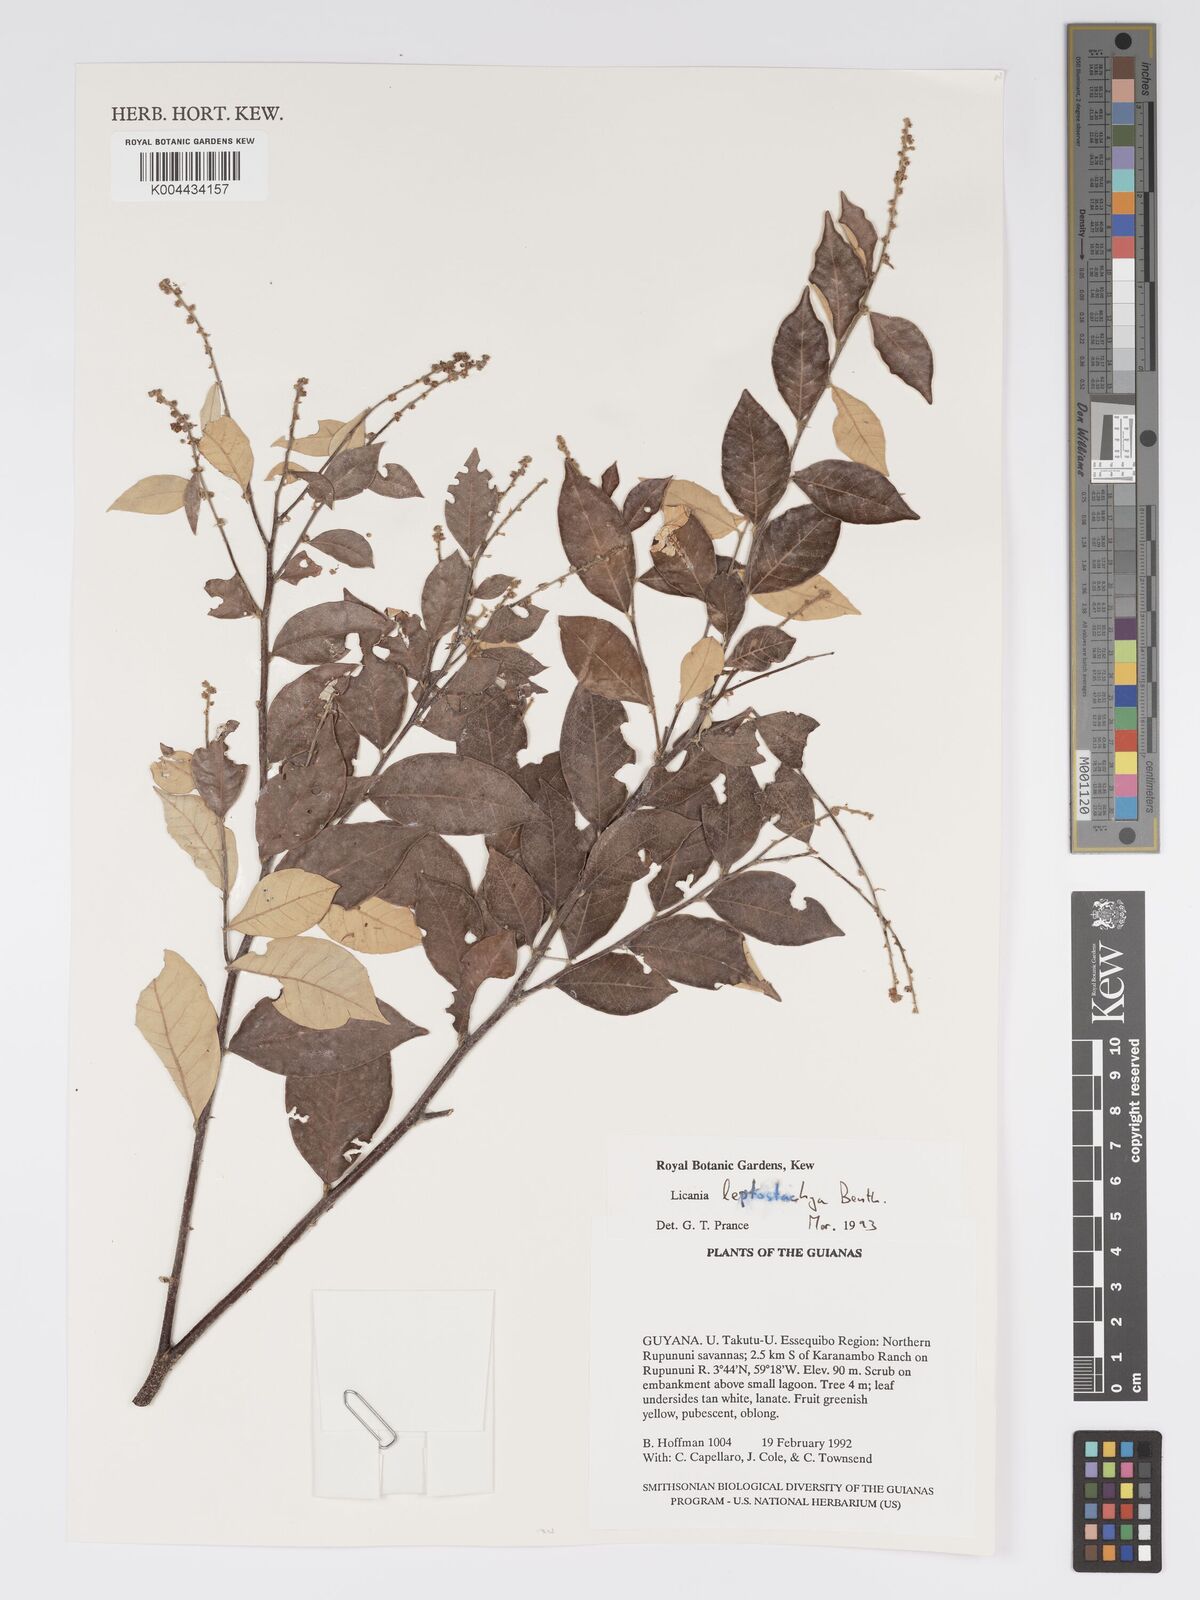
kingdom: Plantae
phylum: Tracheophyta
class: Magnoliopsida
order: Malpighiales
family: Chrysobalanaceae
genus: Licania
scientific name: Licania leptostachya
